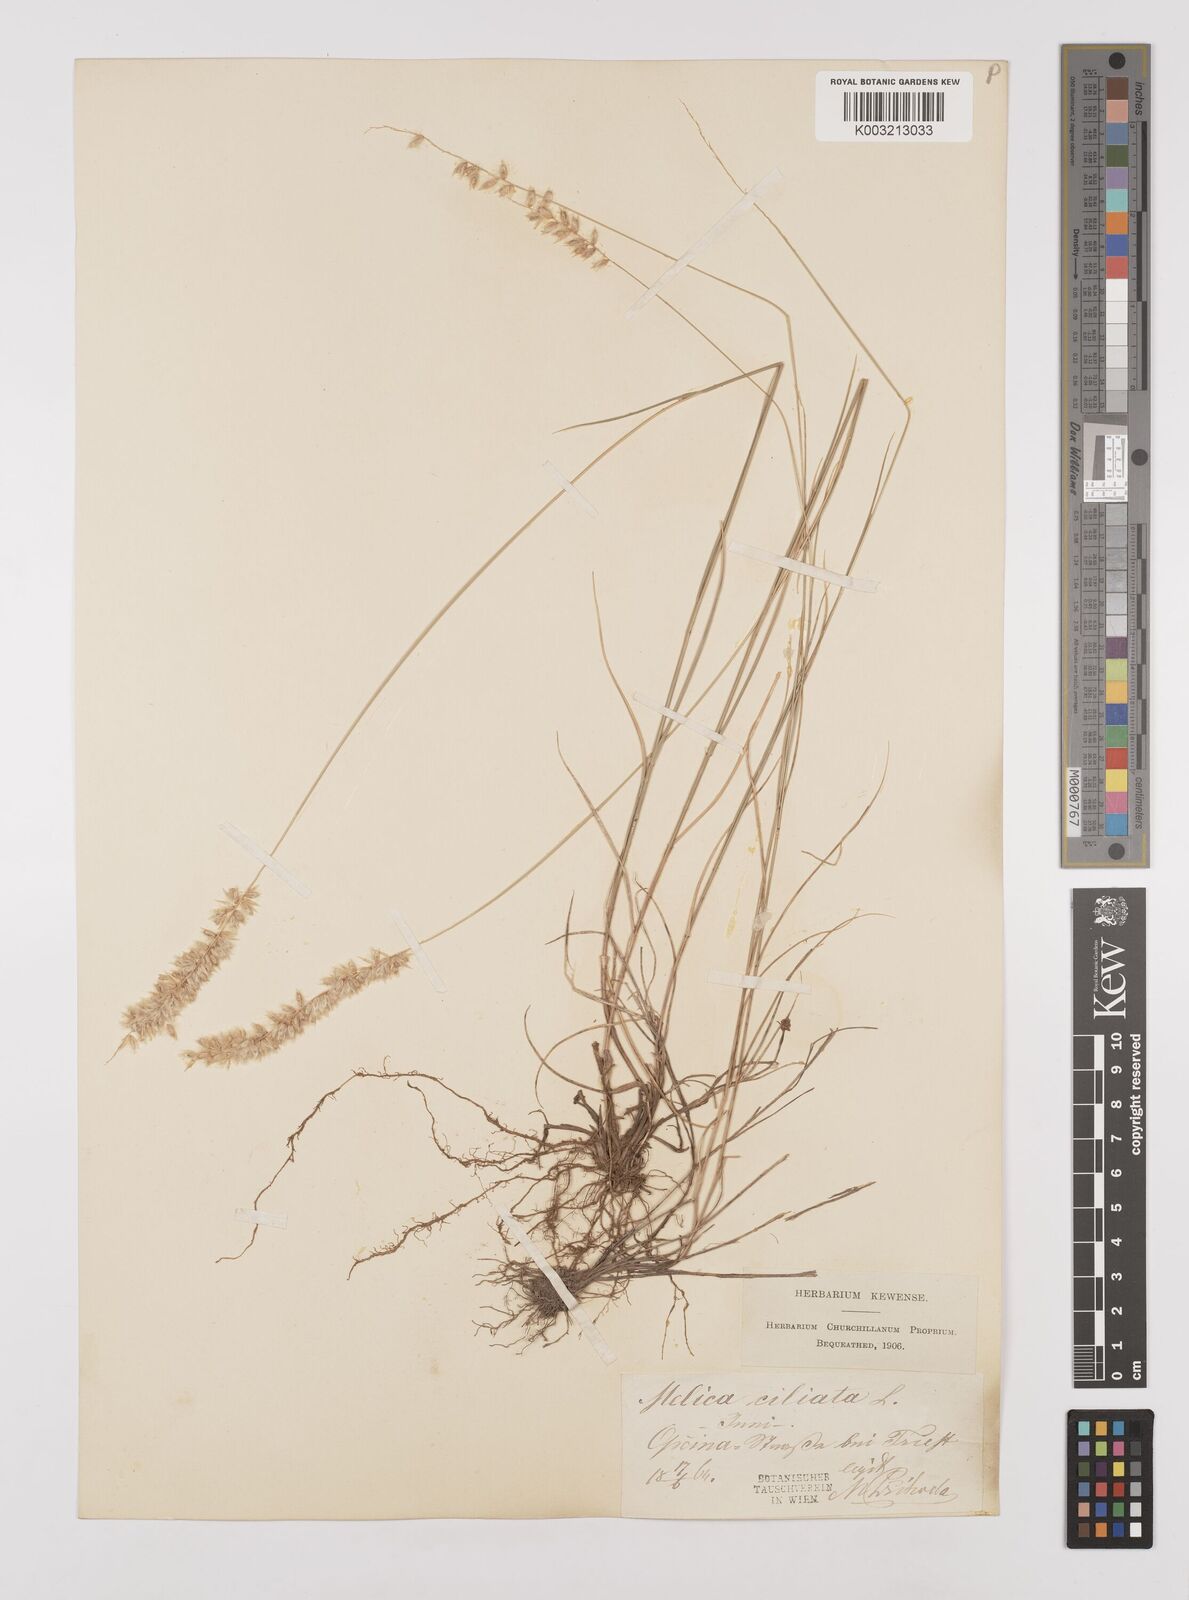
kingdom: Plantae
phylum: Tracheophyta
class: Liliopsida
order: Poales
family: Poaceae
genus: Melica
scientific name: Melica ciliata
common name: Hairy melicgrass
